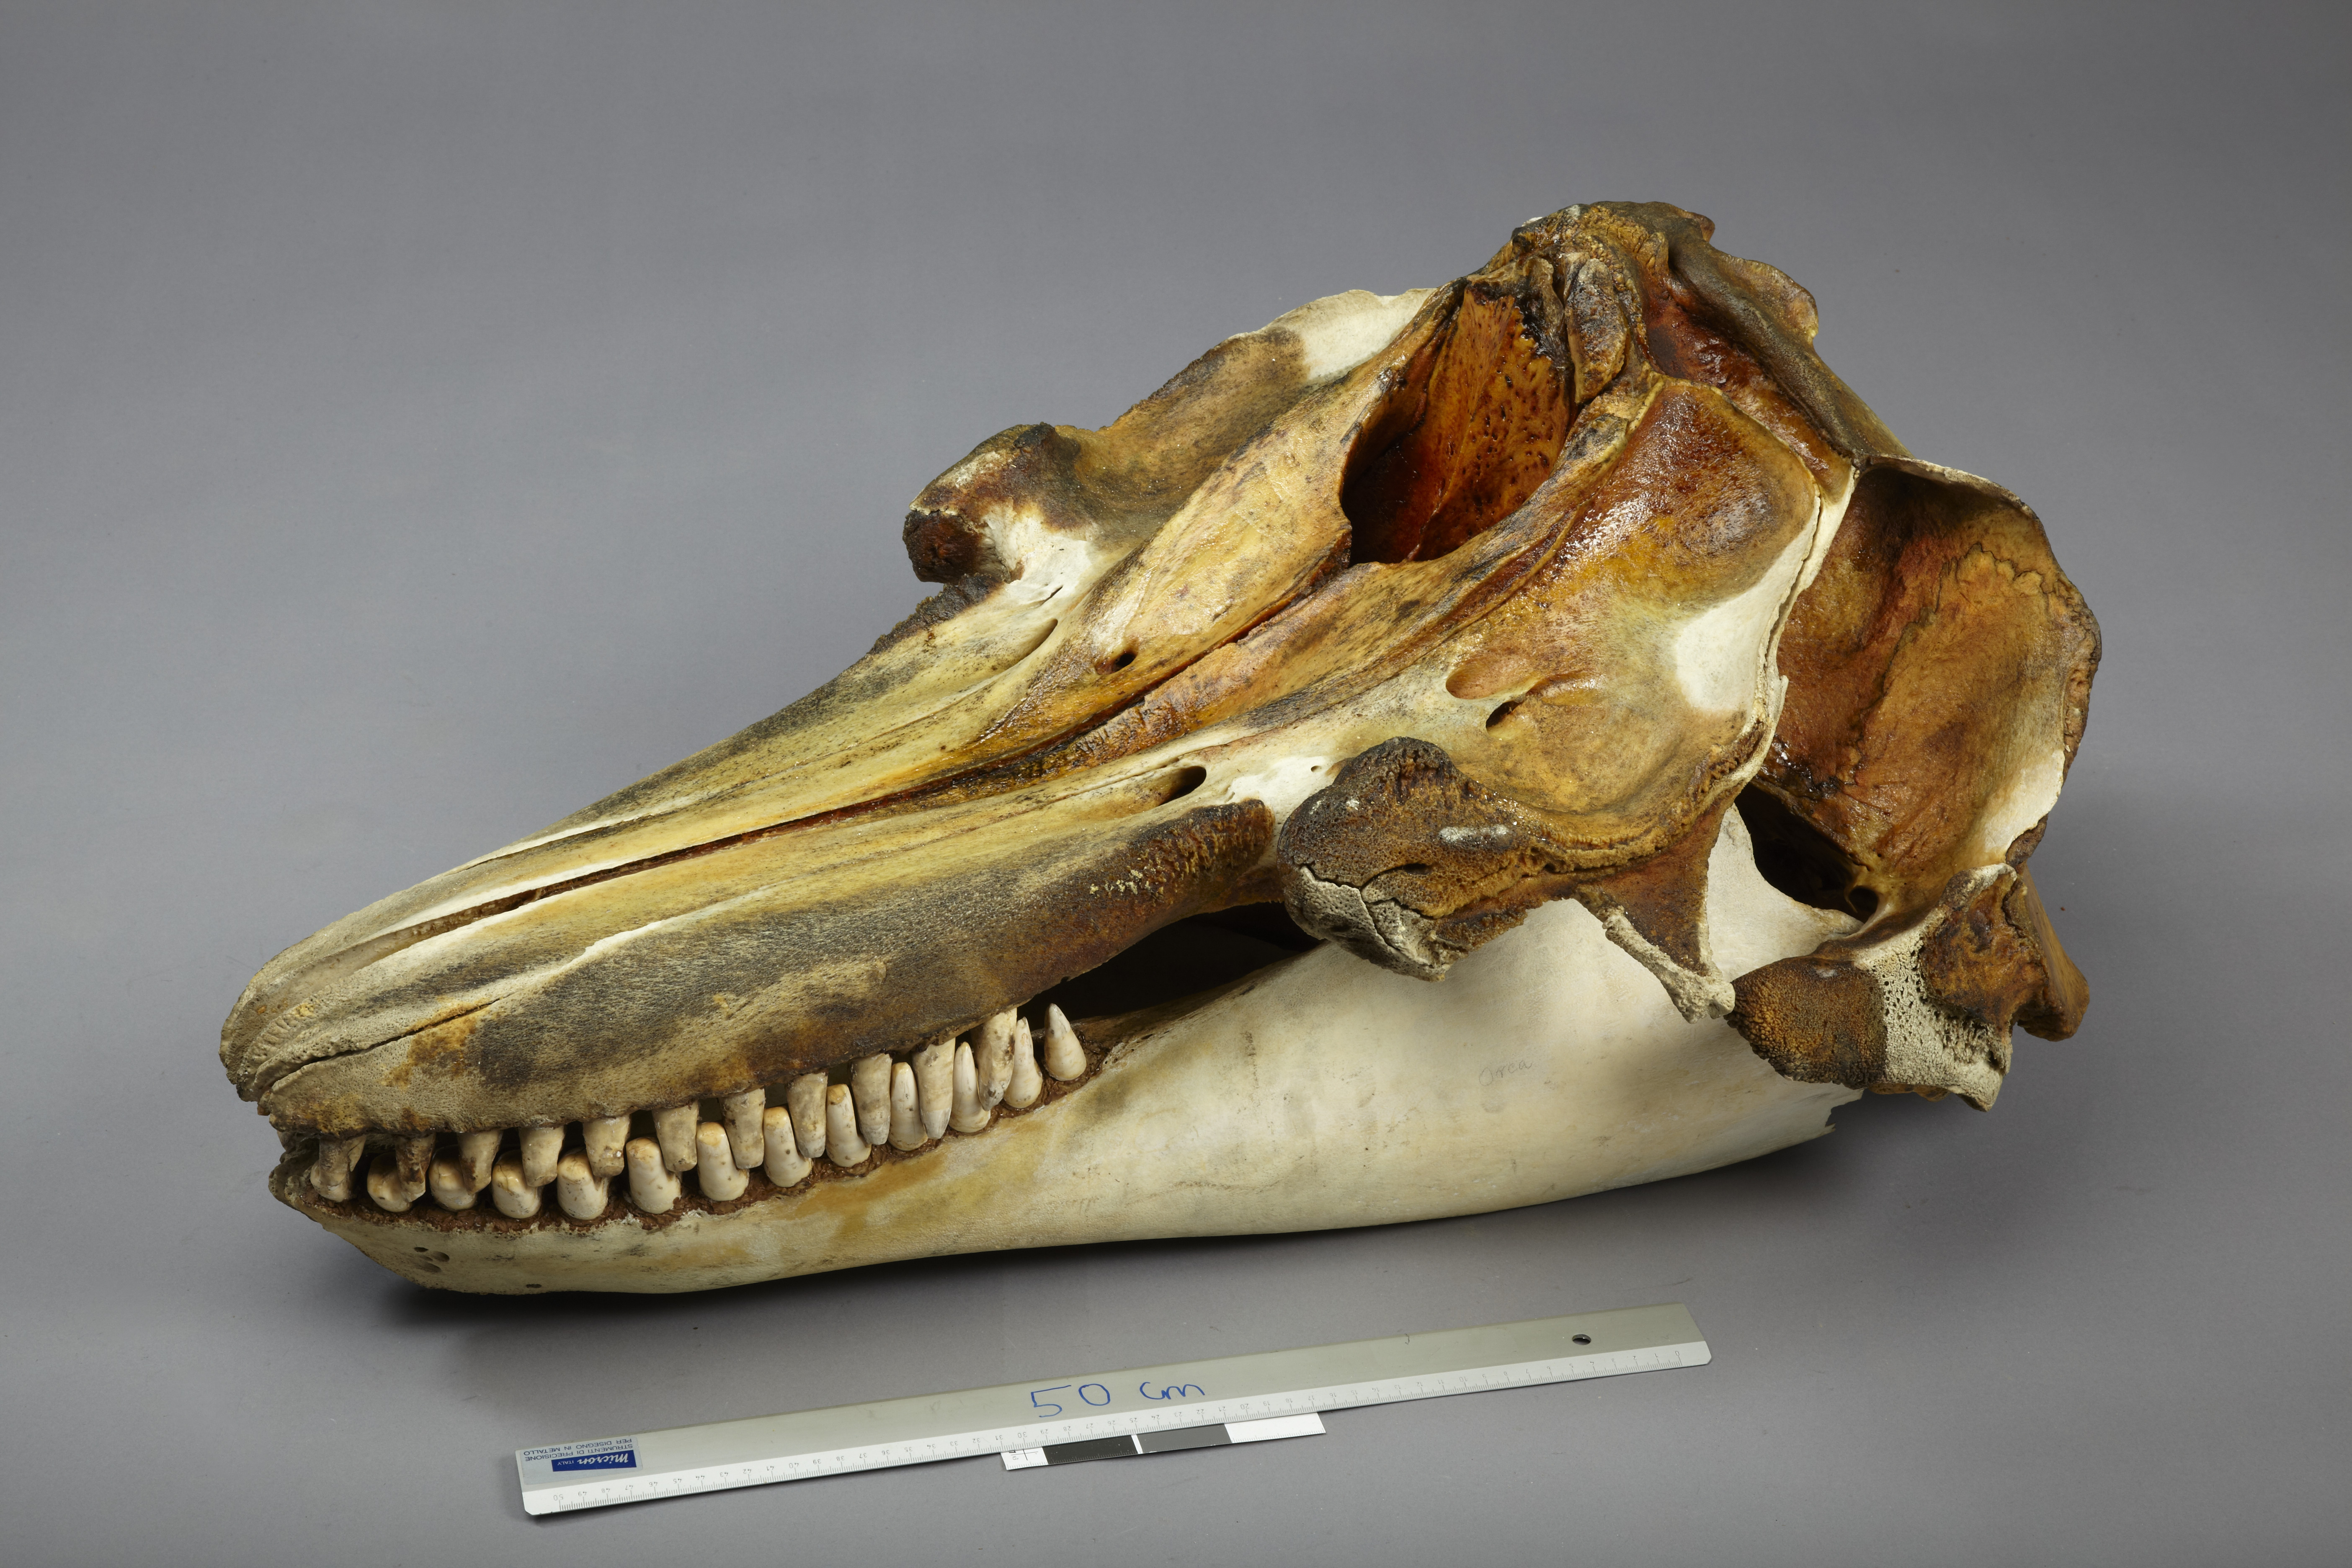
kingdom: Animalia
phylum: Chordata
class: Mammalia
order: Cetacea
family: Delphinidae
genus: Orcinus
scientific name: Orcinus orca
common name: Killer whale
